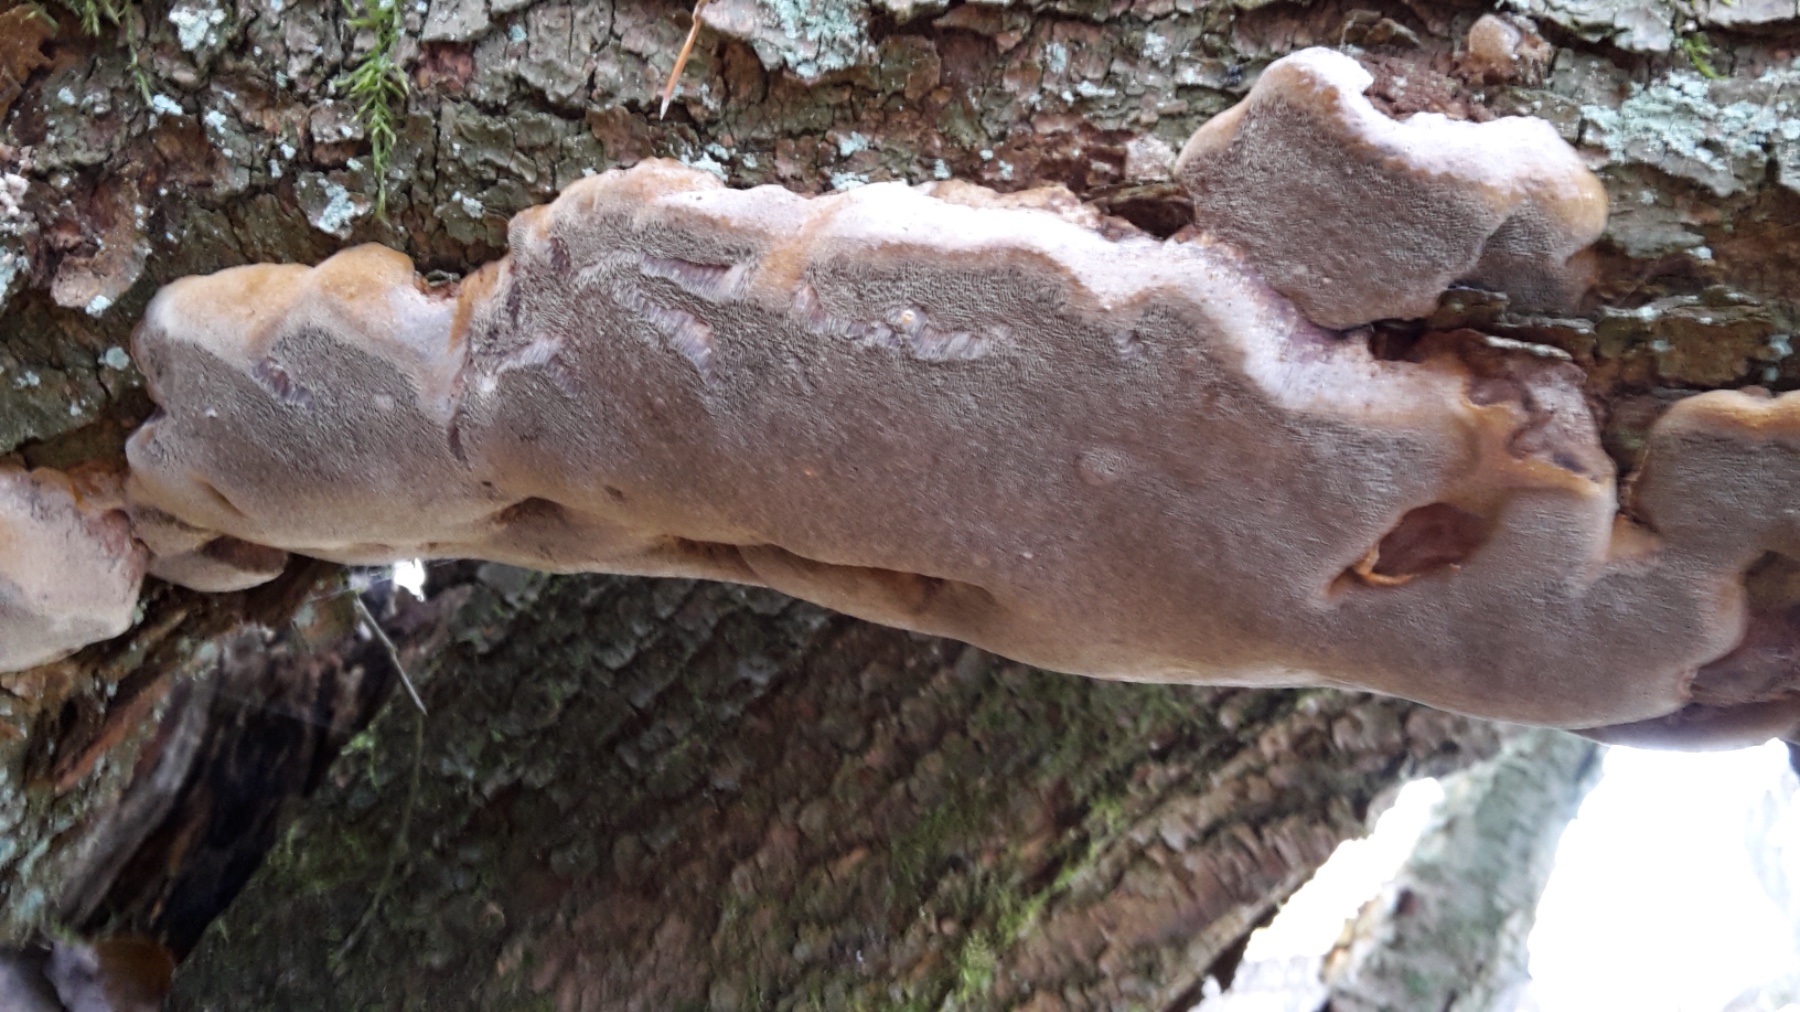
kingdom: Fungi
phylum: Basidiomycota
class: Agaricomycetes
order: Hymenochaetales
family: Hymenochaetaceae
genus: Phellinus
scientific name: Phellinus pomaceus
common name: blomme-ildporesvamp
